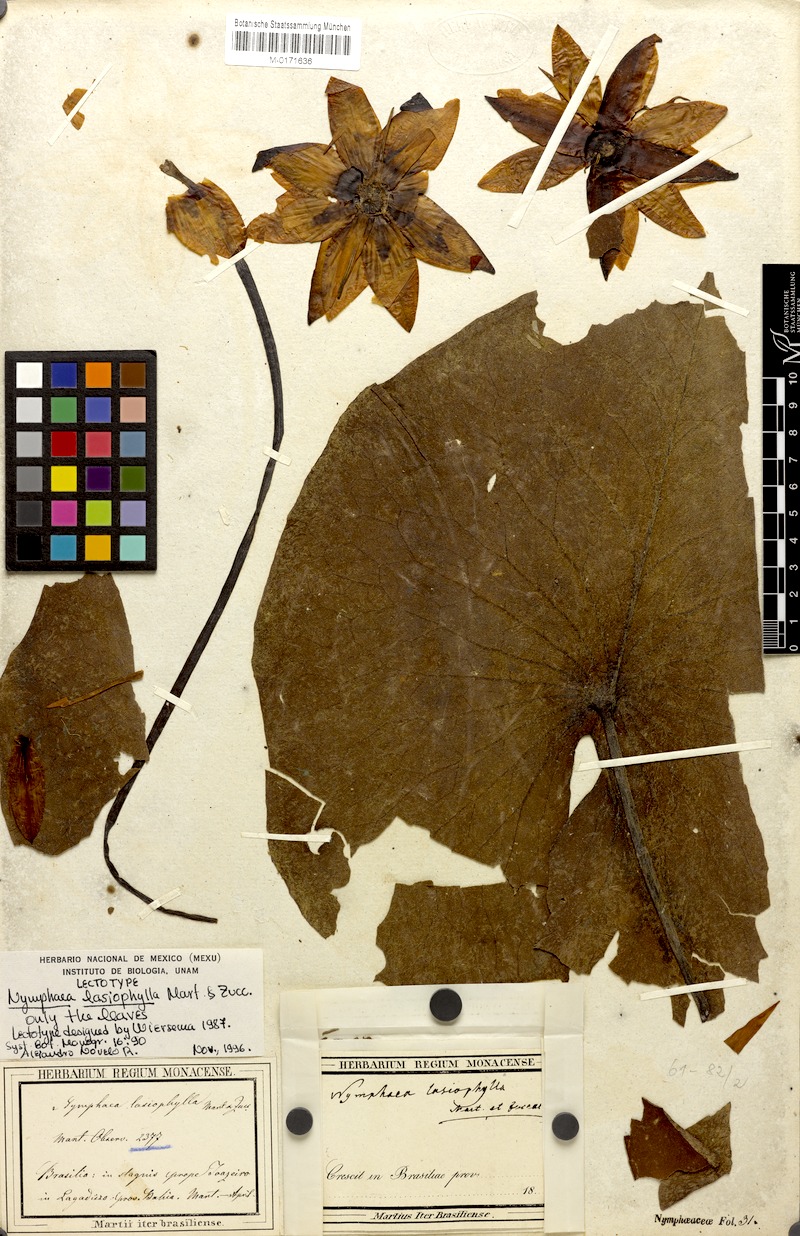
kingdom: Plantae
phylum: Tracheophyta
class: Magnoliopsida
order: Nymphaeales
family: Nymphaeaceae
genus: Nymphaea
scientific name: Nymphaea lasiophylla
